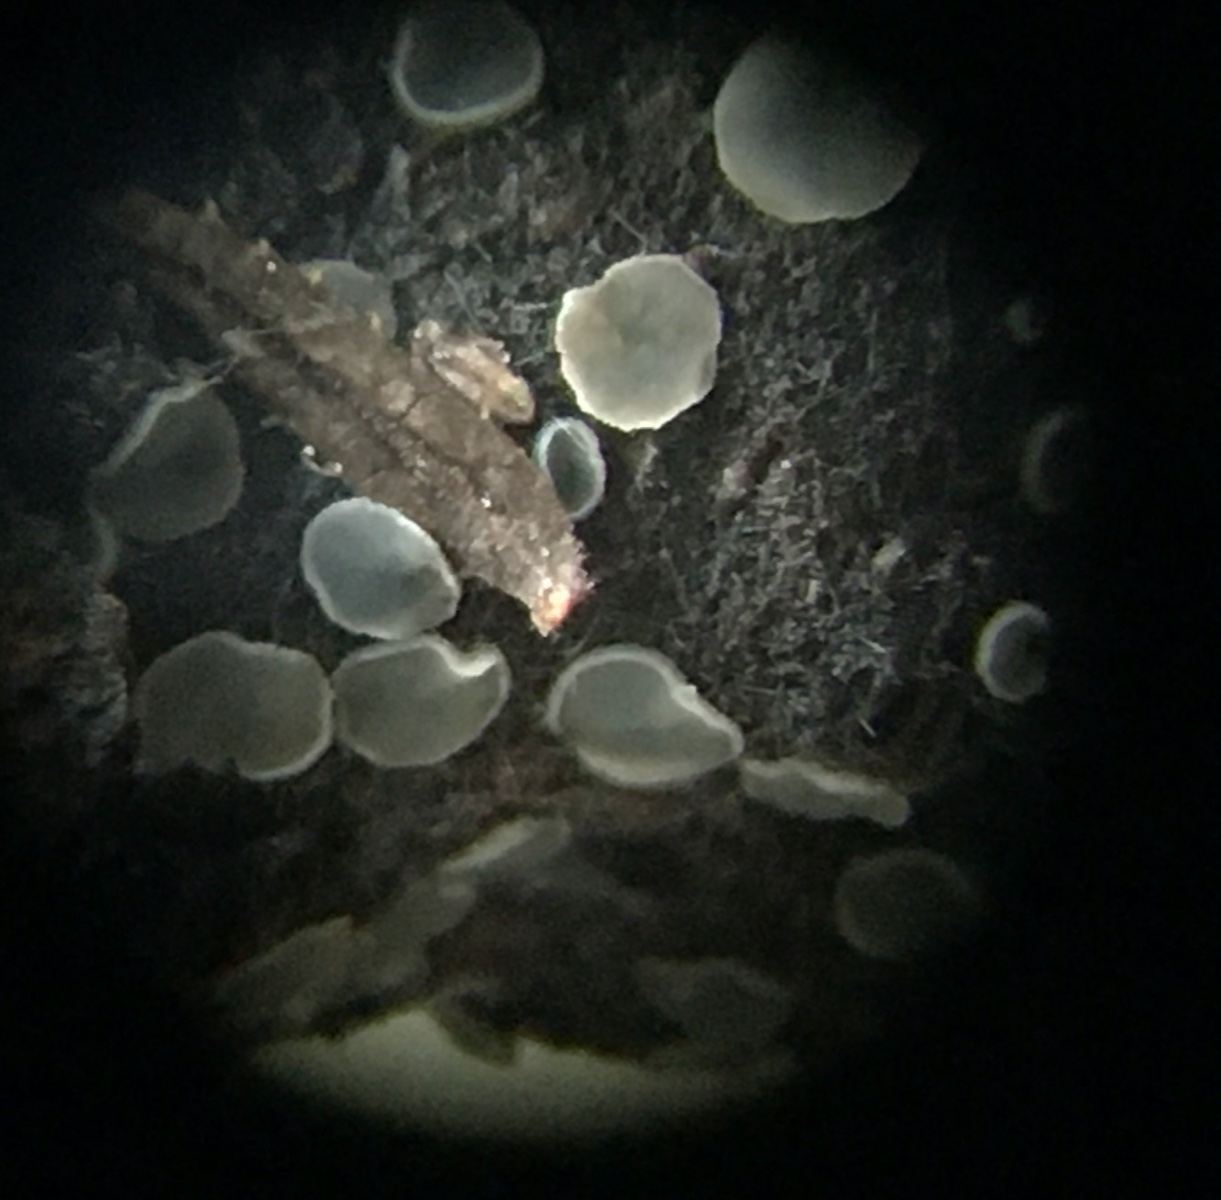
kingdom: Fungi
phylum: Ascomycota
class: Leotiomycetes
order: Helotiales
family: Mollisiaceae
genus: Tapesia
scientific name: Tapesia fusca
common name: tæppe-gråskive
